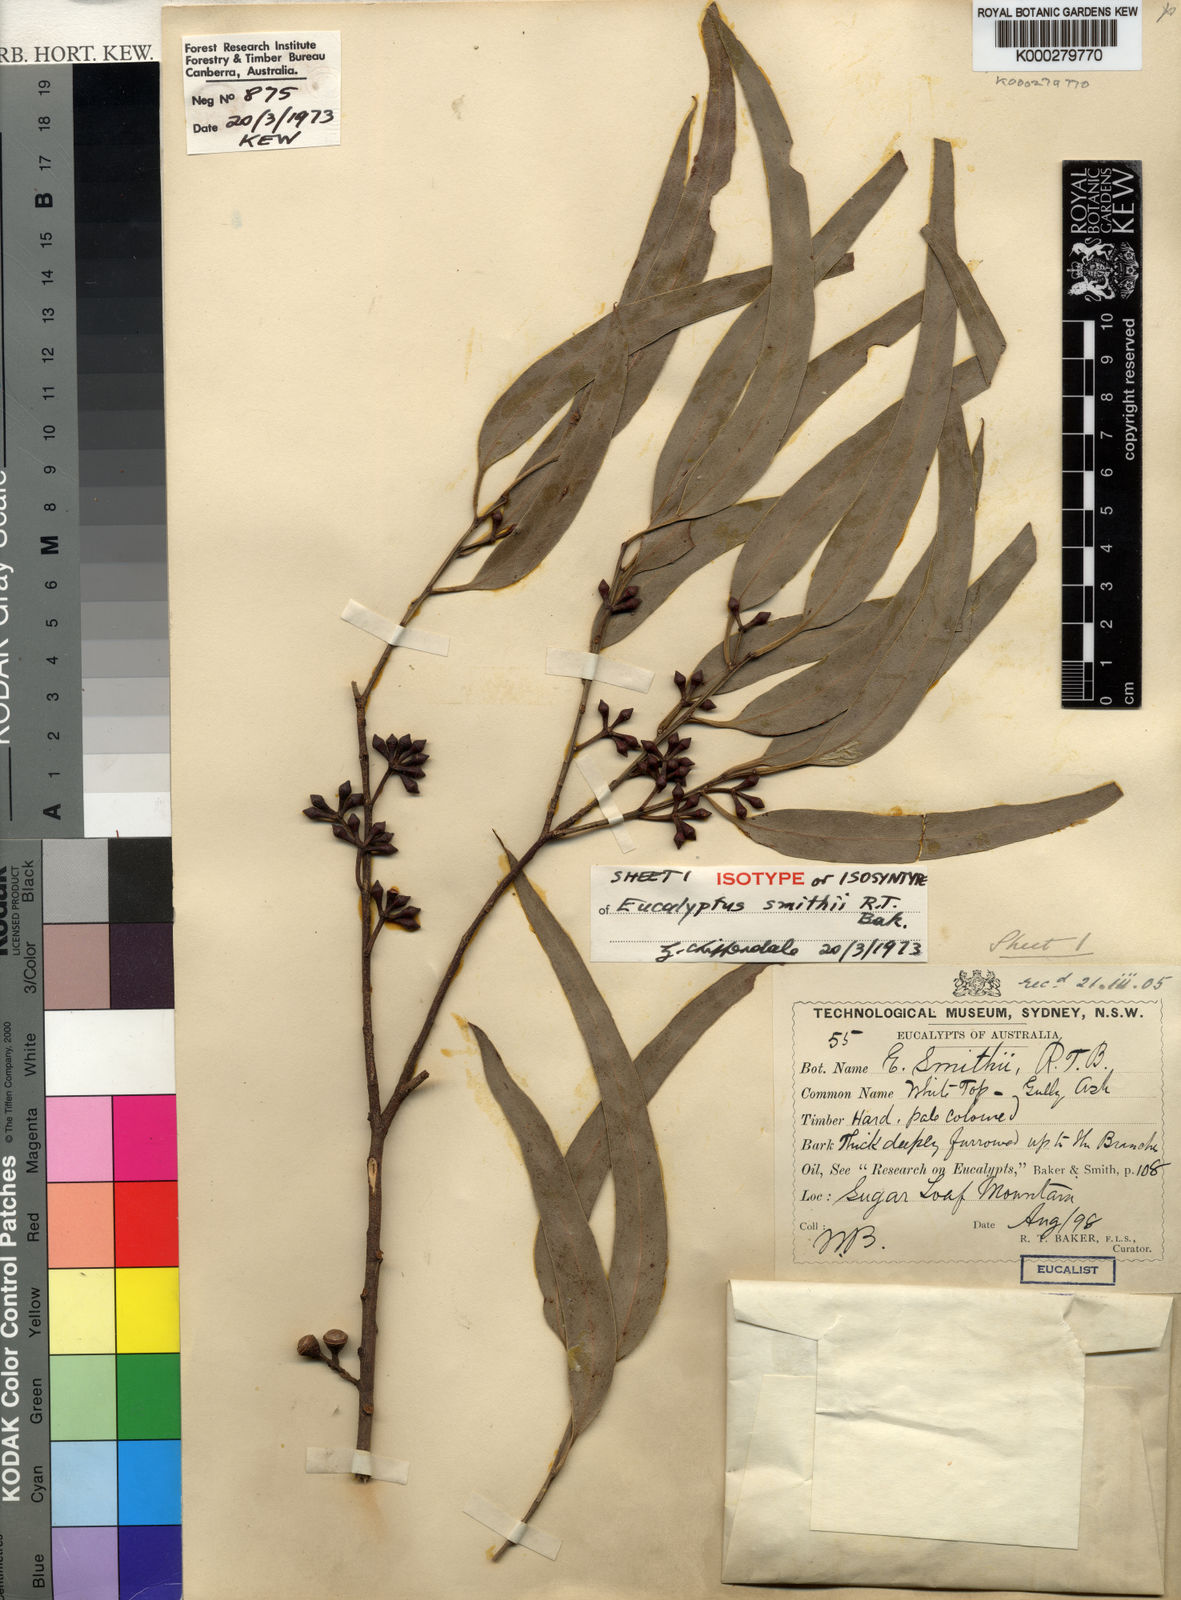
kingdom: Plantae
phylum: Tracheophyta
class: Magnoliopsida
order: Myrtales
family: Myrtaceae
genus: Eucalyptus
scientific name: Eucalyptus smithii
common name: Blackbutt-peppermint
